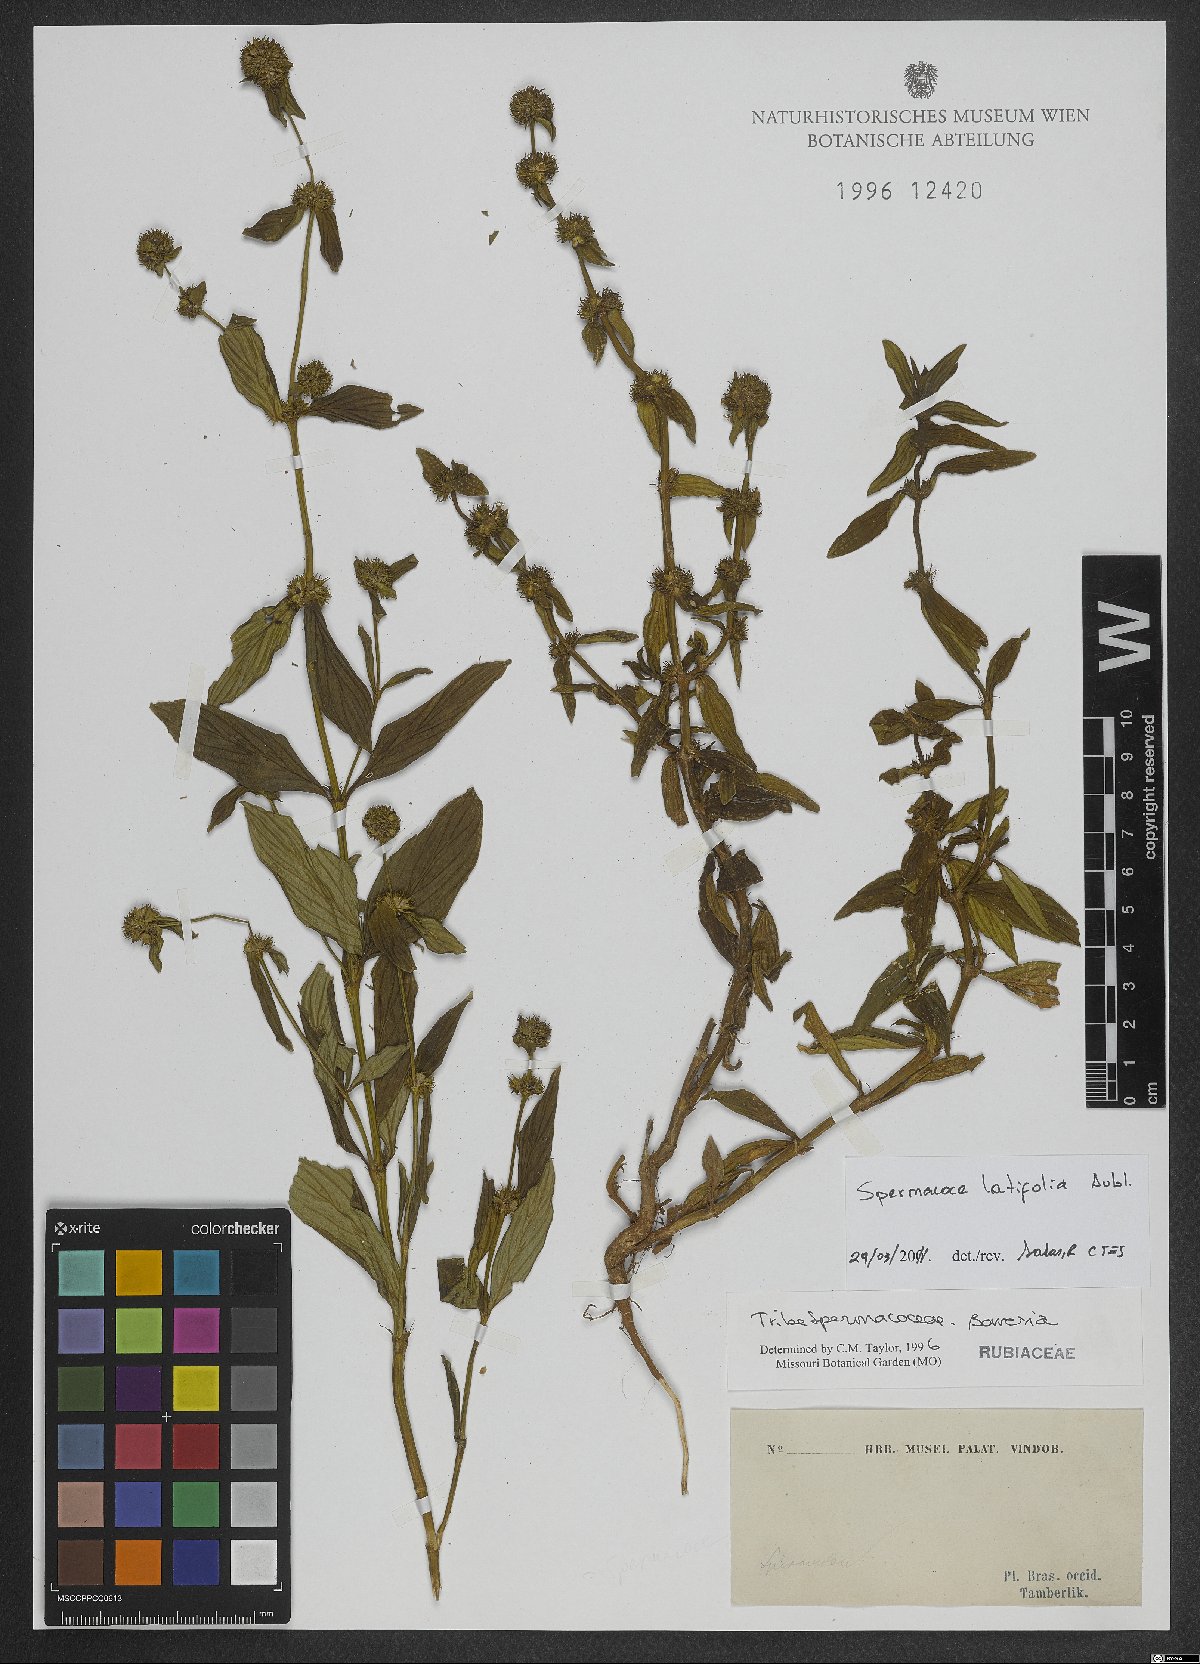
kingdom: Plantae
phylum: Tracheophyta
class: Magnoliopsida
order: Gentianales
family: Rubiaceae
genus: Spermacoce
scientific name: Spermacoce latifolia
